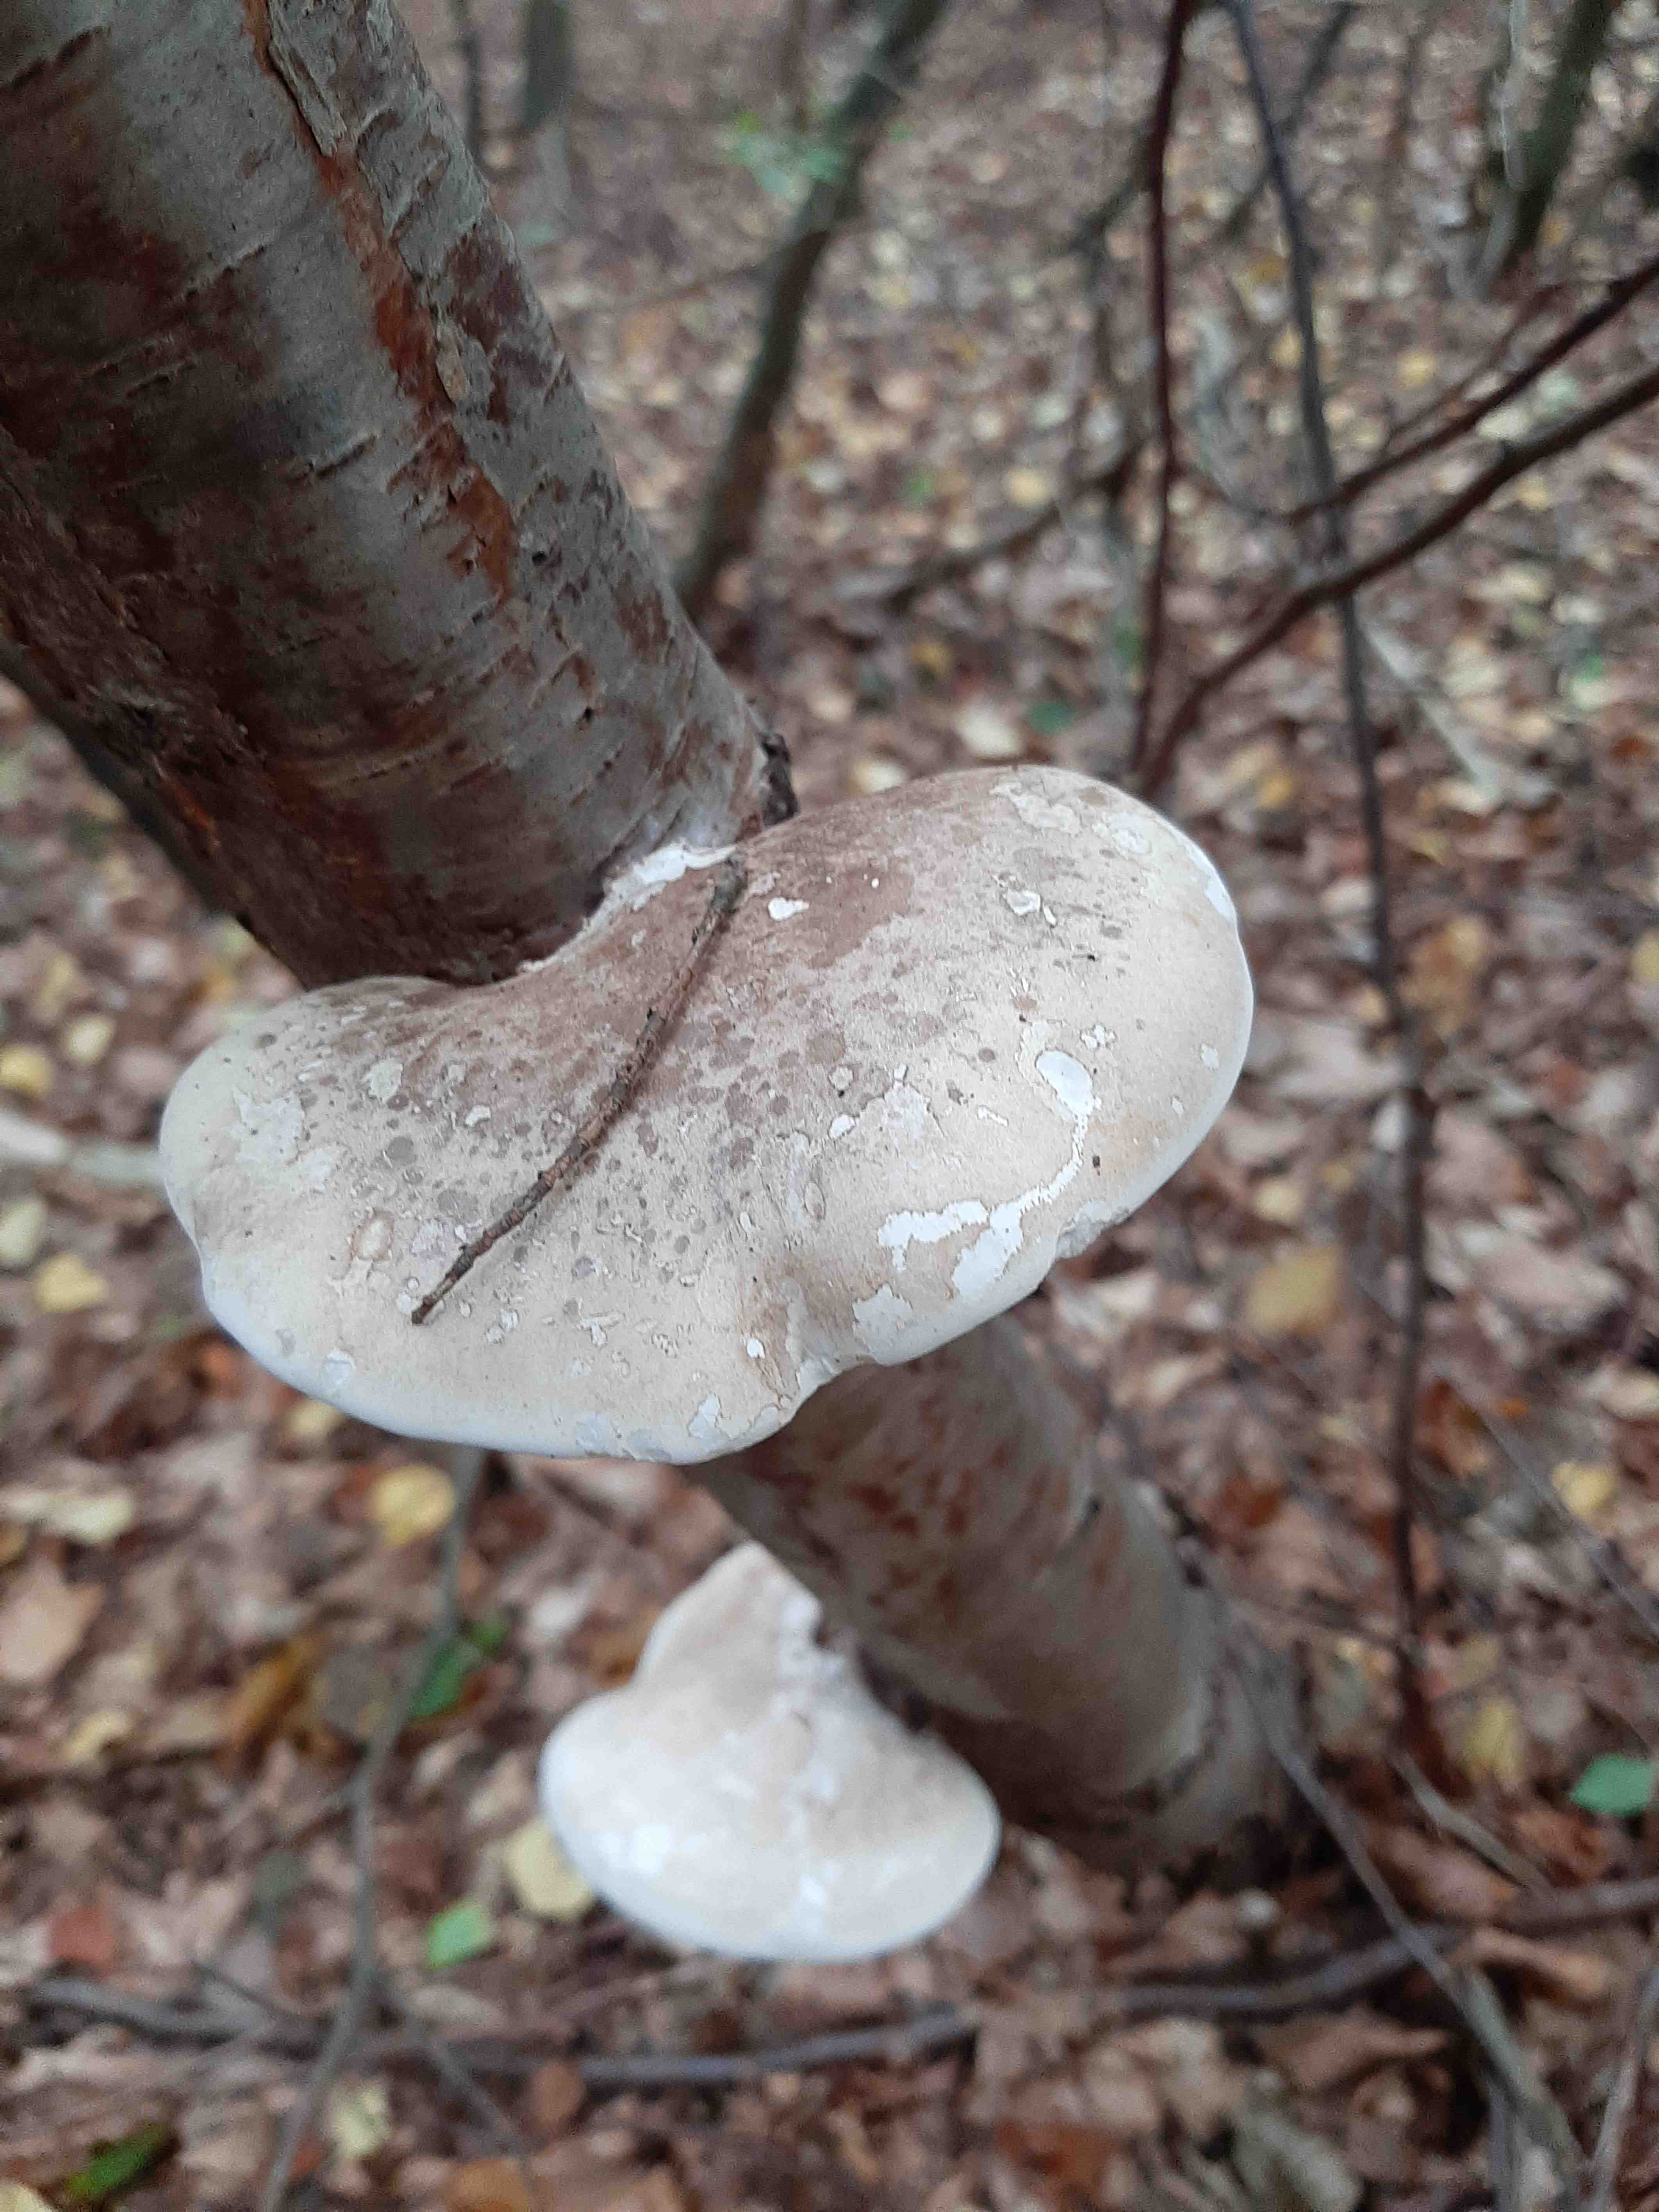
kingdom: Fungi
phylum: Basidiomycota
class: Agaricomycetes
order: Polyporales
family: Fomitopsidaceae
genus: Fomitopsis
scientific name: Fomitopsis betulina
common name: birkeporesvamp
